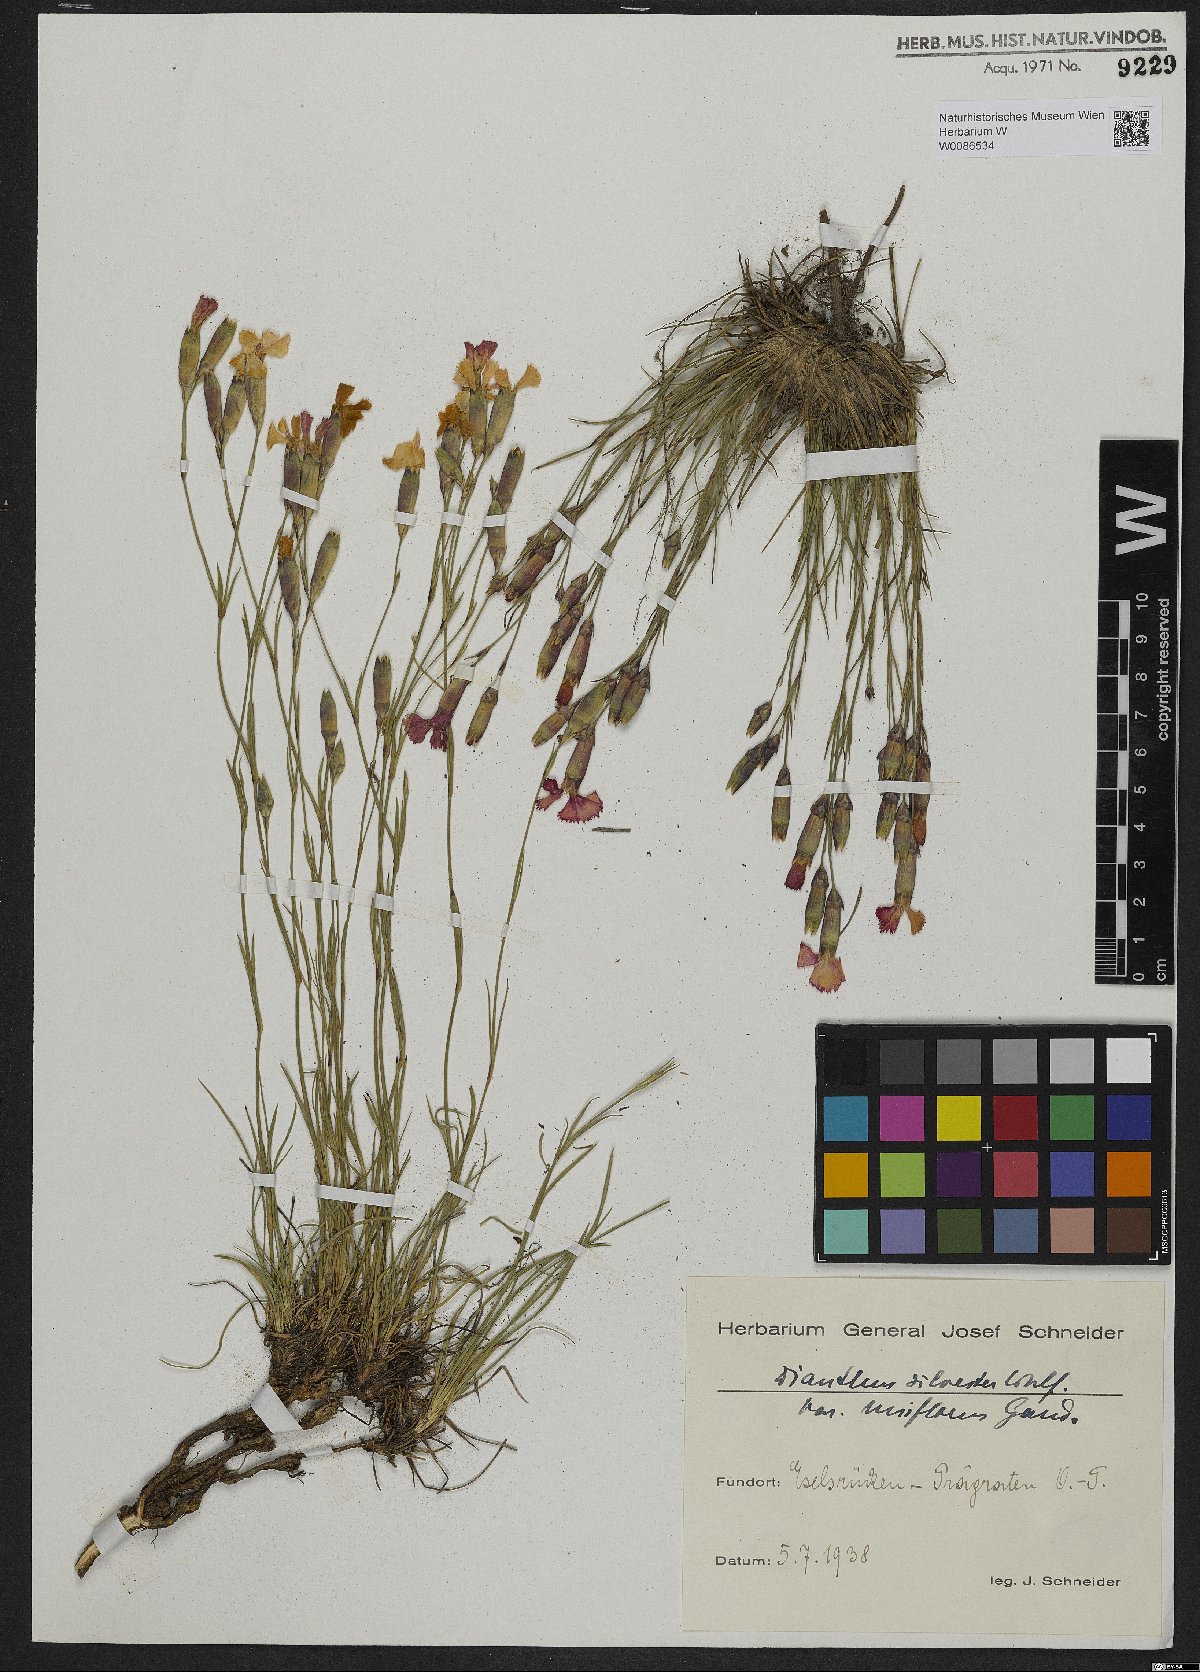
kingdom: Plantae
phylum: Tracheophyta
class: Magnoliopsida
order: Caryophyllales
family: Caryophyllaceae
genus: Dianthus
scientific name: Dianthus sylvestris
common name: Wood pink
